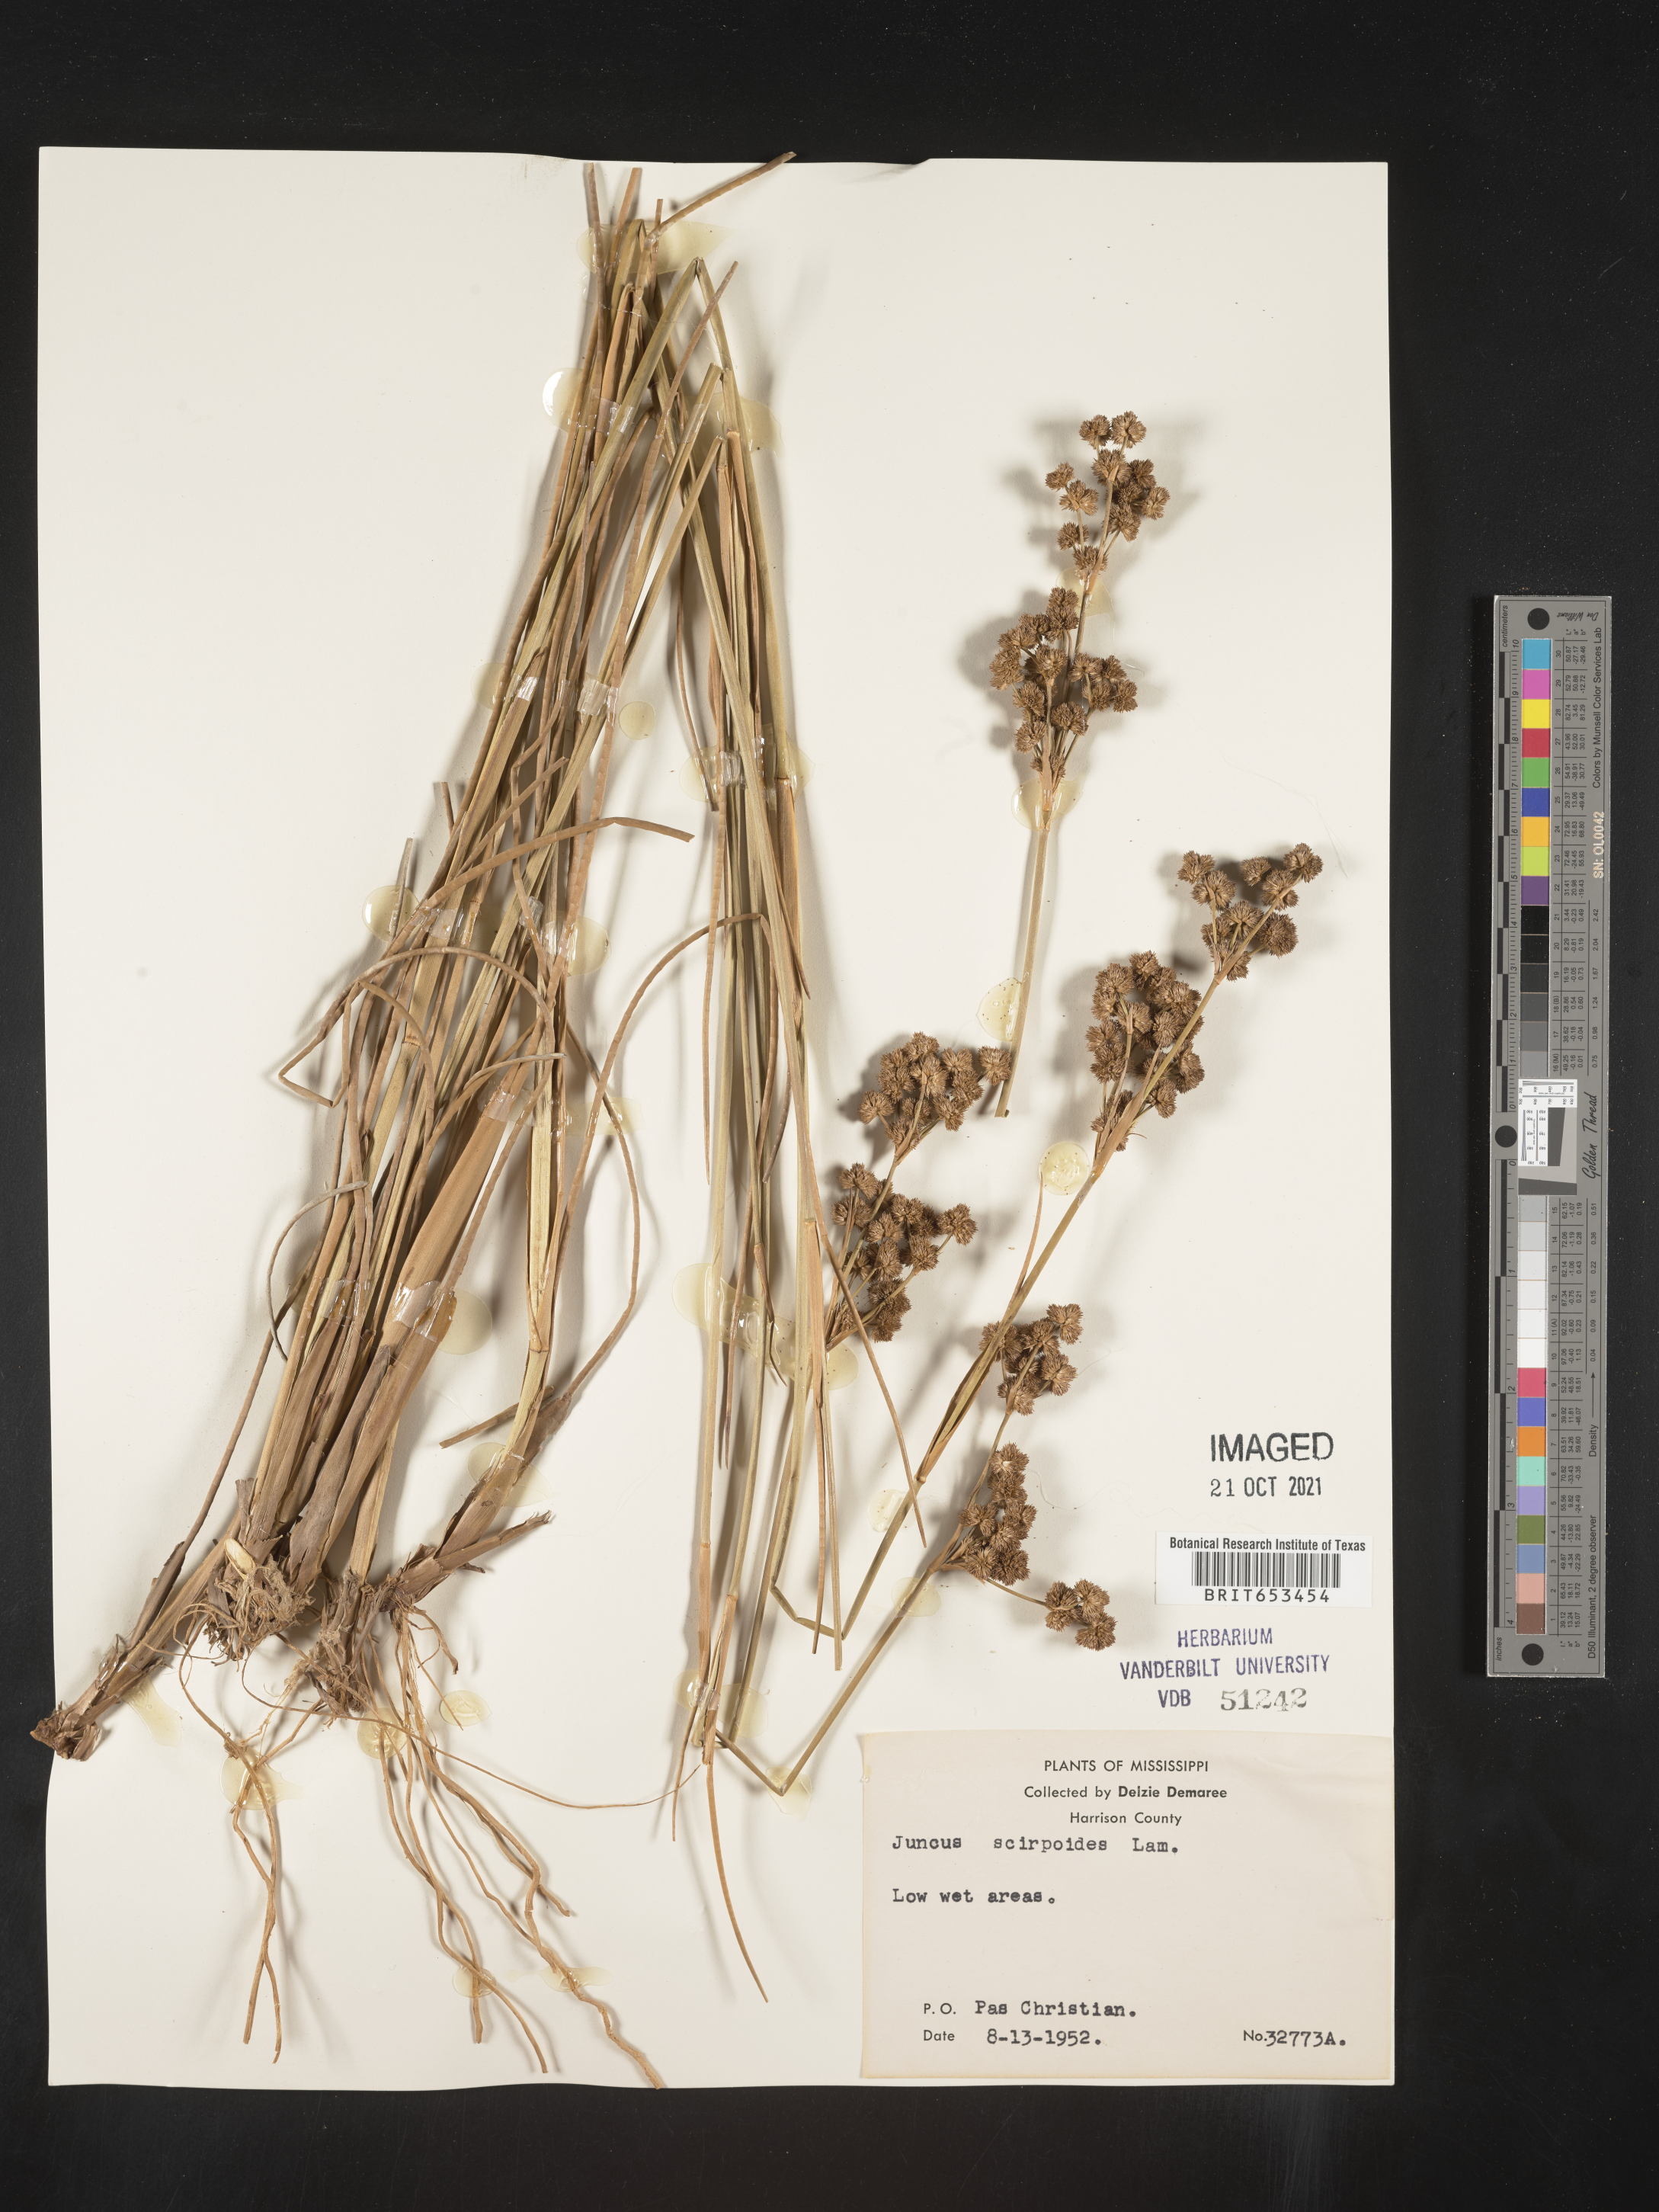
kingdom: Plantae
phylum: Tracheophyta
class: Liliopsida
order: Poales
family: Juncaceae
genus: Juncus
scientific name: Juncus scirpoides
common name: Needlepod rush
